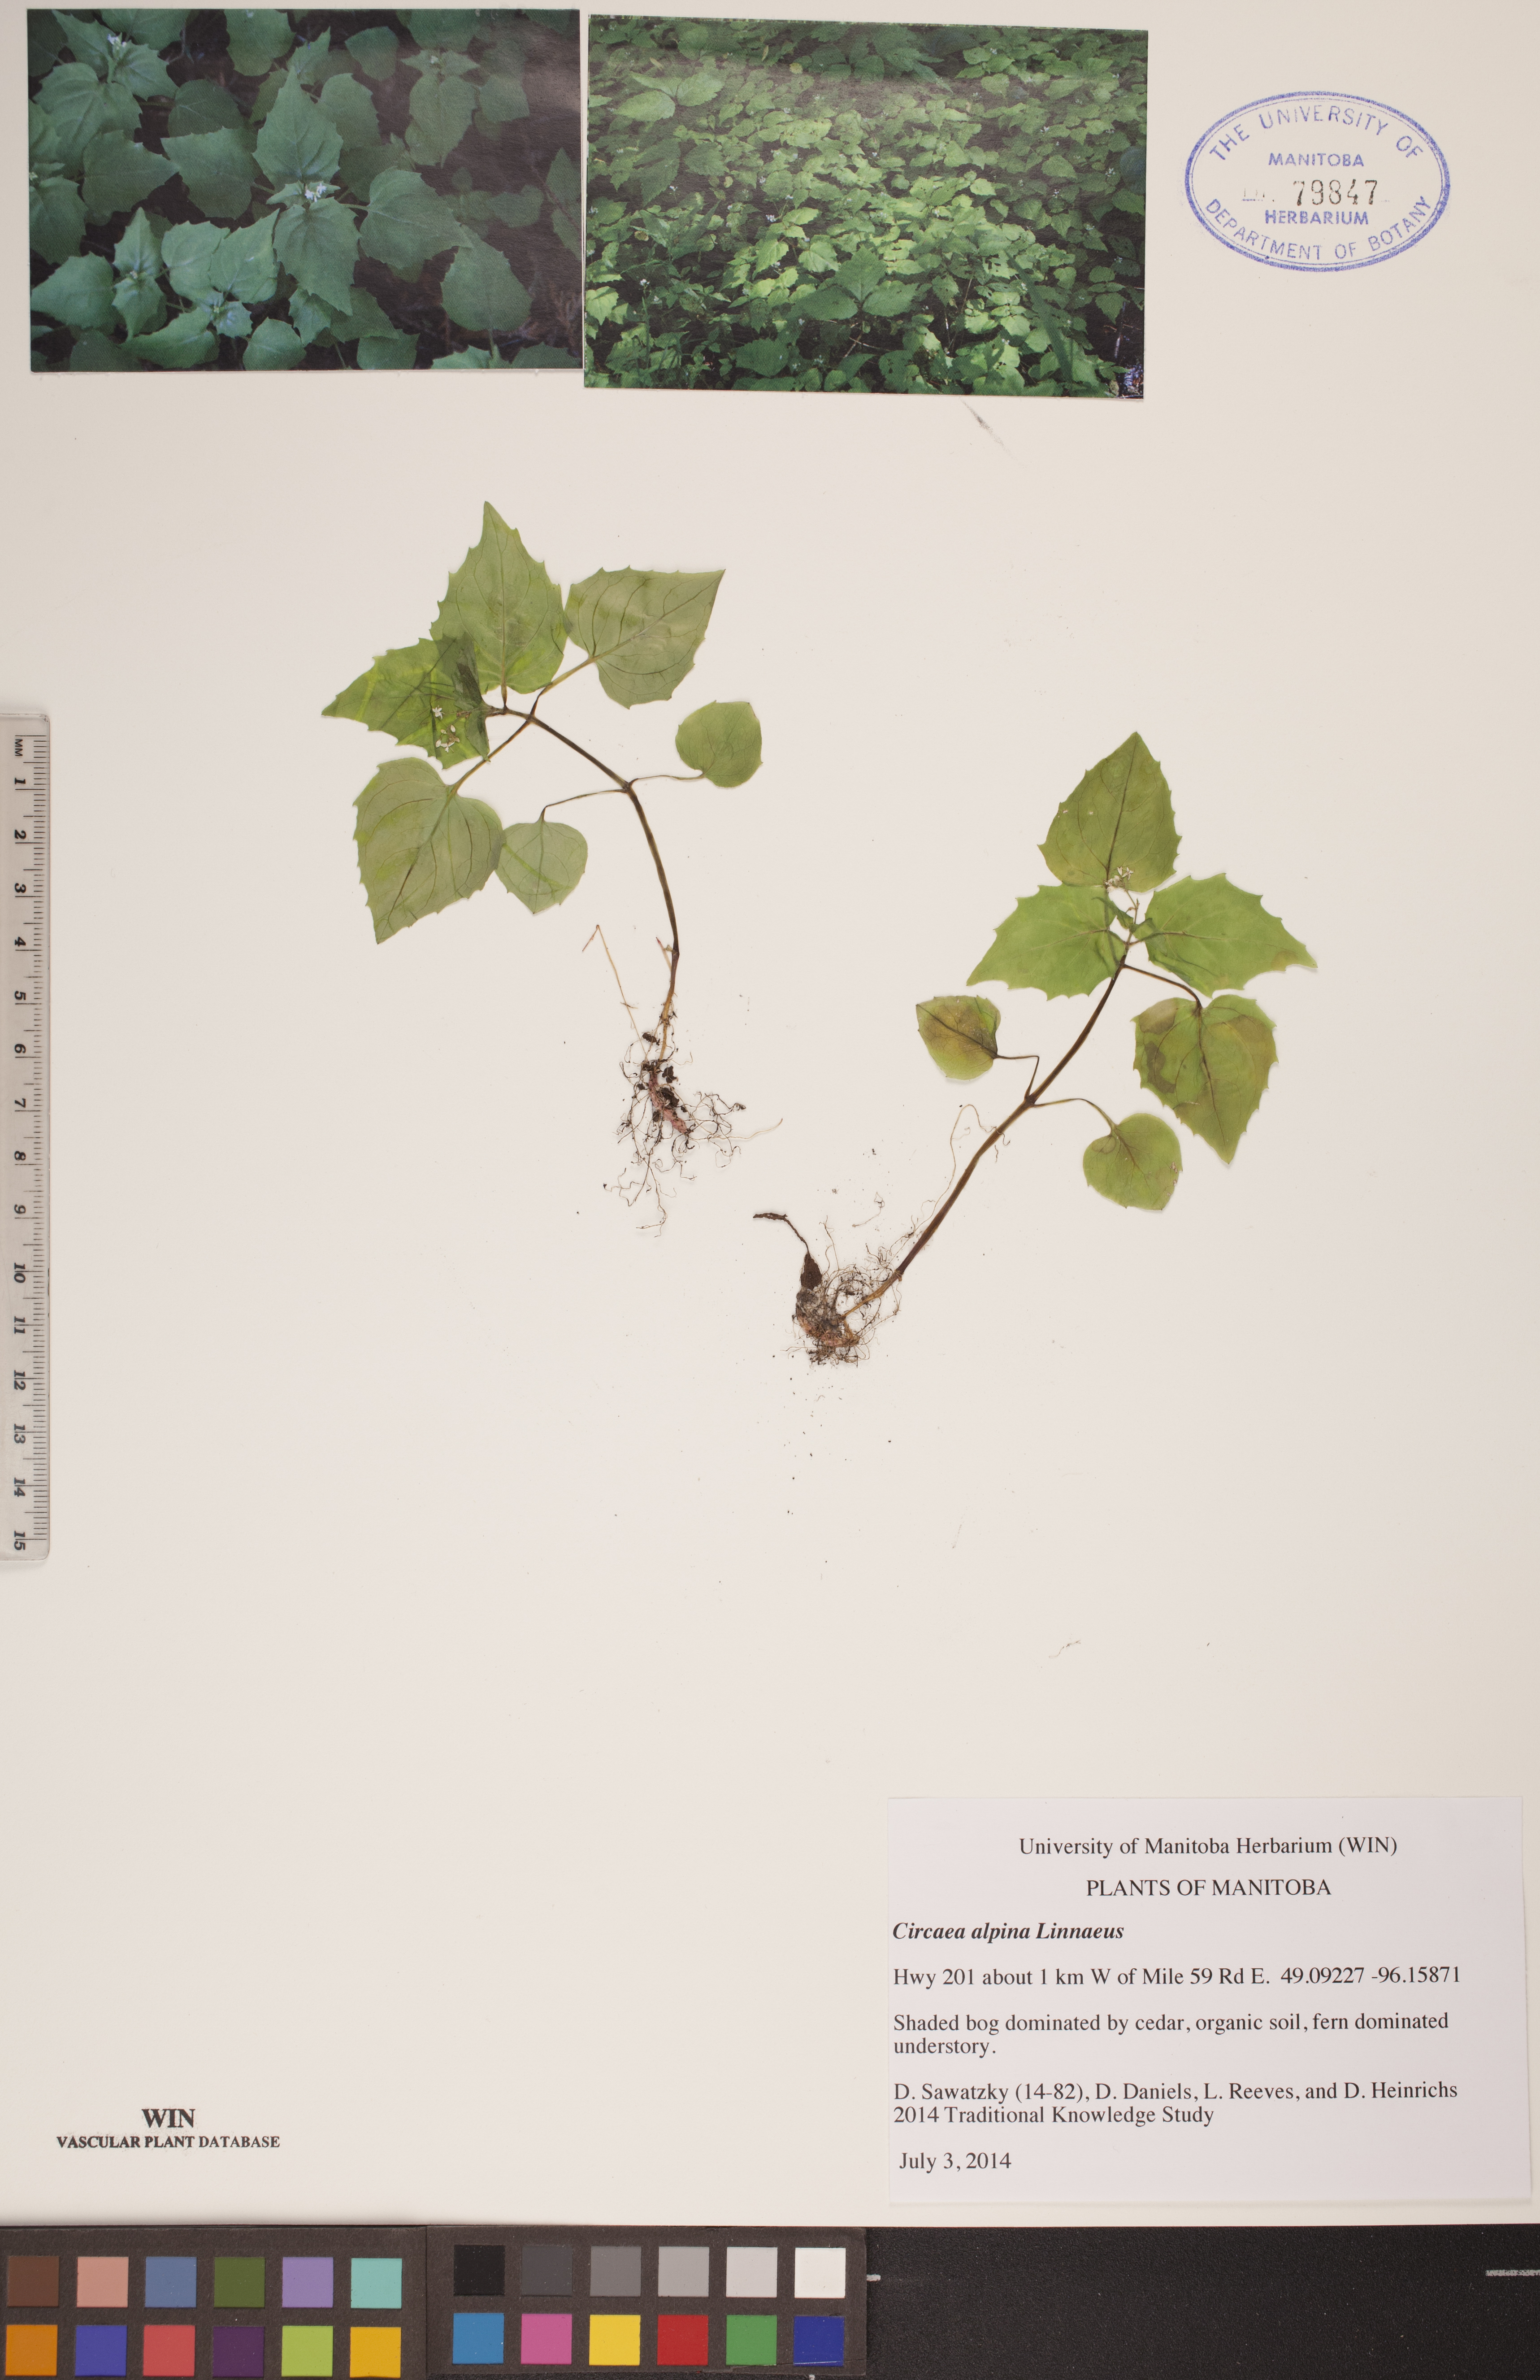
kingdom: Plantae
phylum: Tracheophyta
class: Magnoliopsida
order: Myrtales
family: Onagraceae
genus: Circaea
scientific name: Circaea alpina
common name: Alpine enchanter's-nightshade
